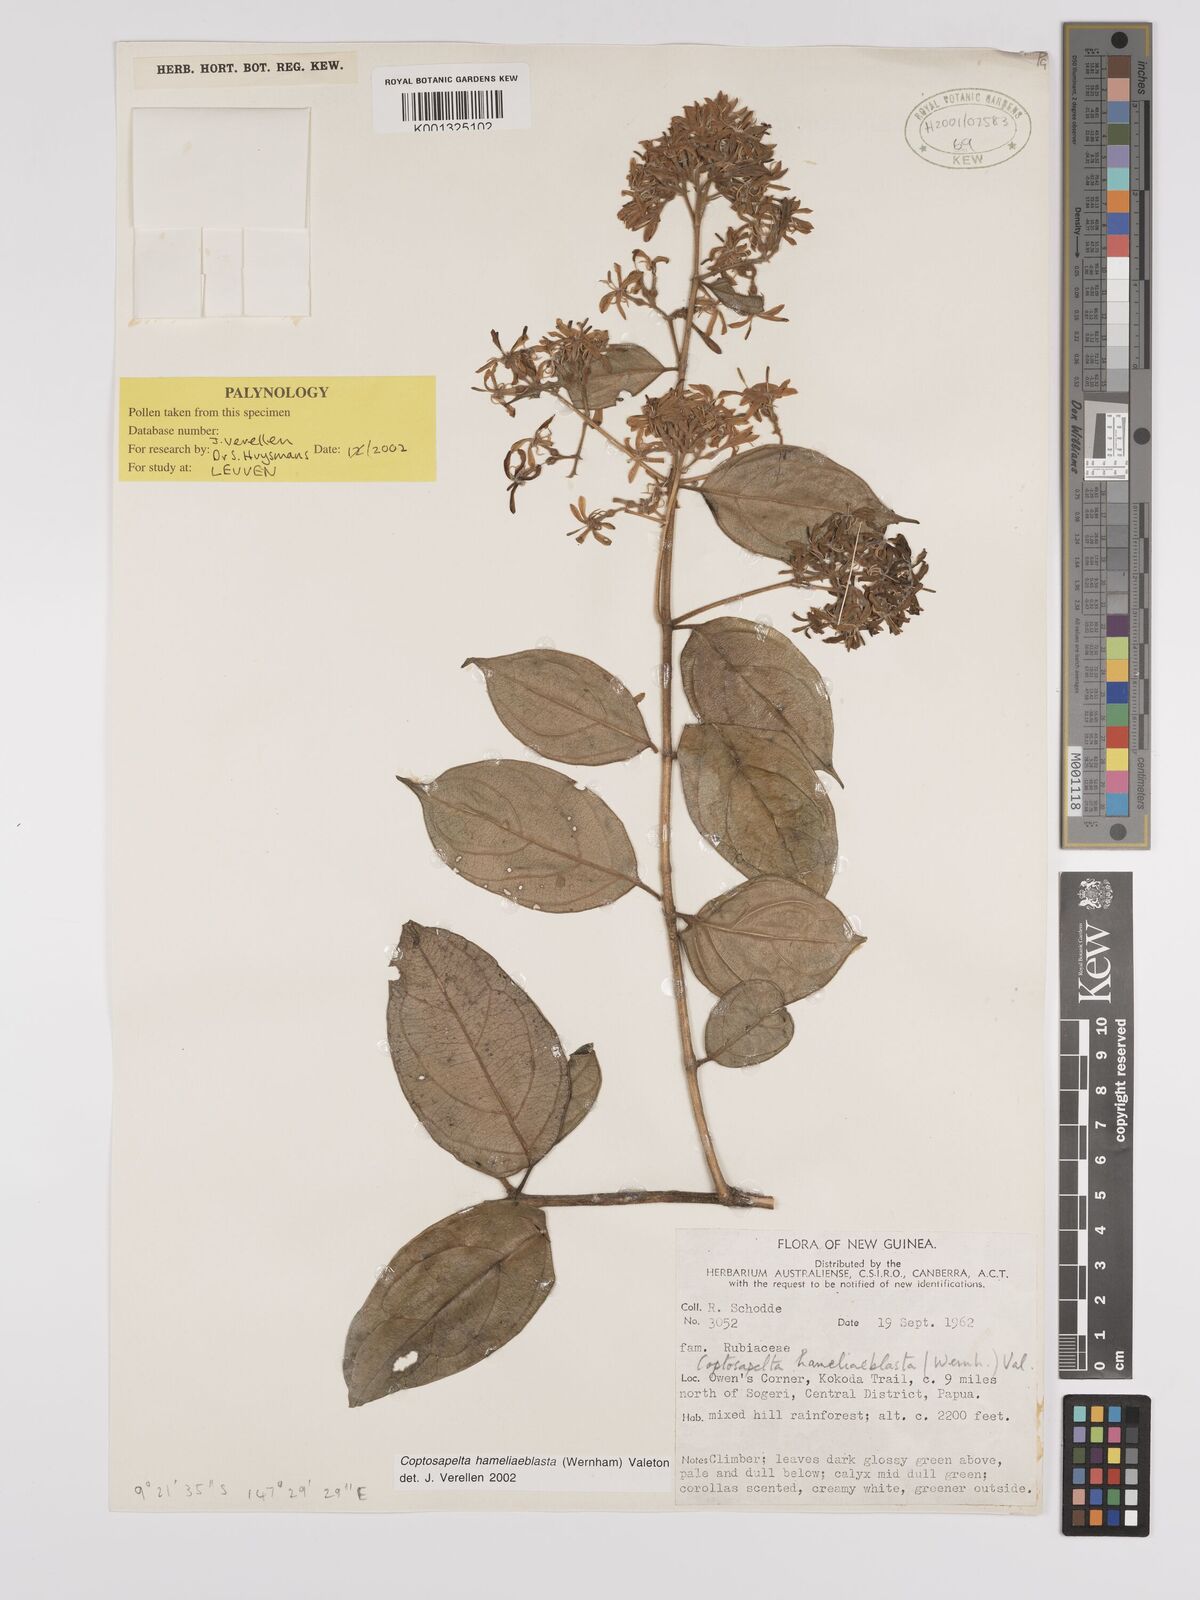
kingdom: Plantae
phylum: Tracheophyta
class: Magnoliopsida
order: Gentianales
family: Rubiaceae
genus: Coptosapelta
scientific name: Coptosapelta
